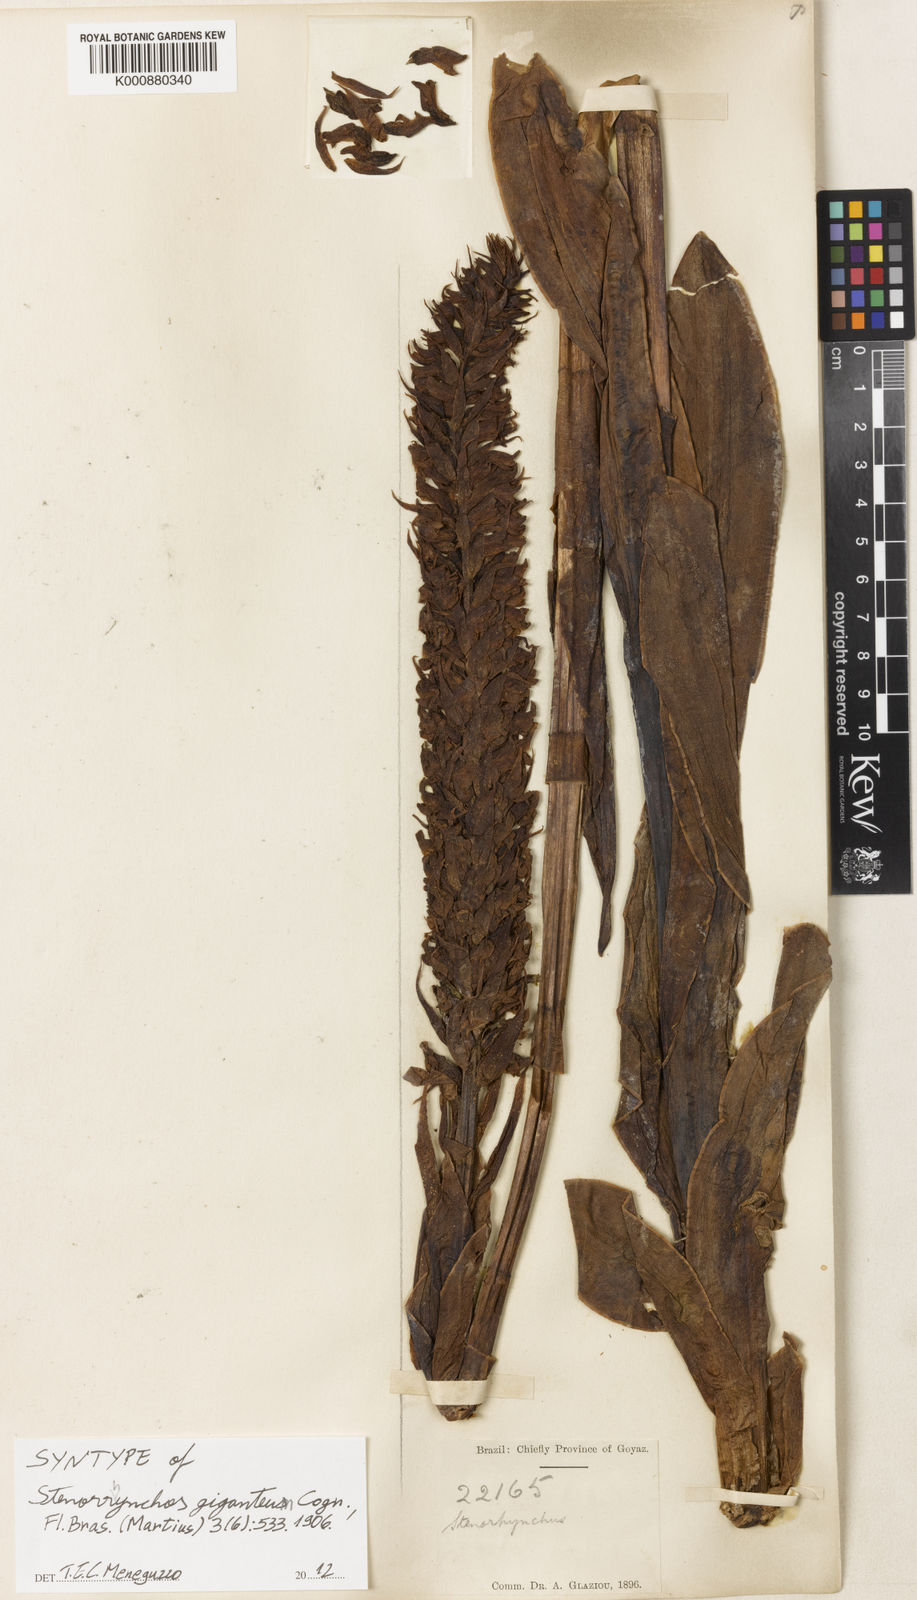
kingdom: Plantae
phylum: Tracheophyta
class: Liliopsida
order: Asparagales
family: Orchidaceae
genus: Skeptrostachys
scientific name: Skeptrostachys gigantea
